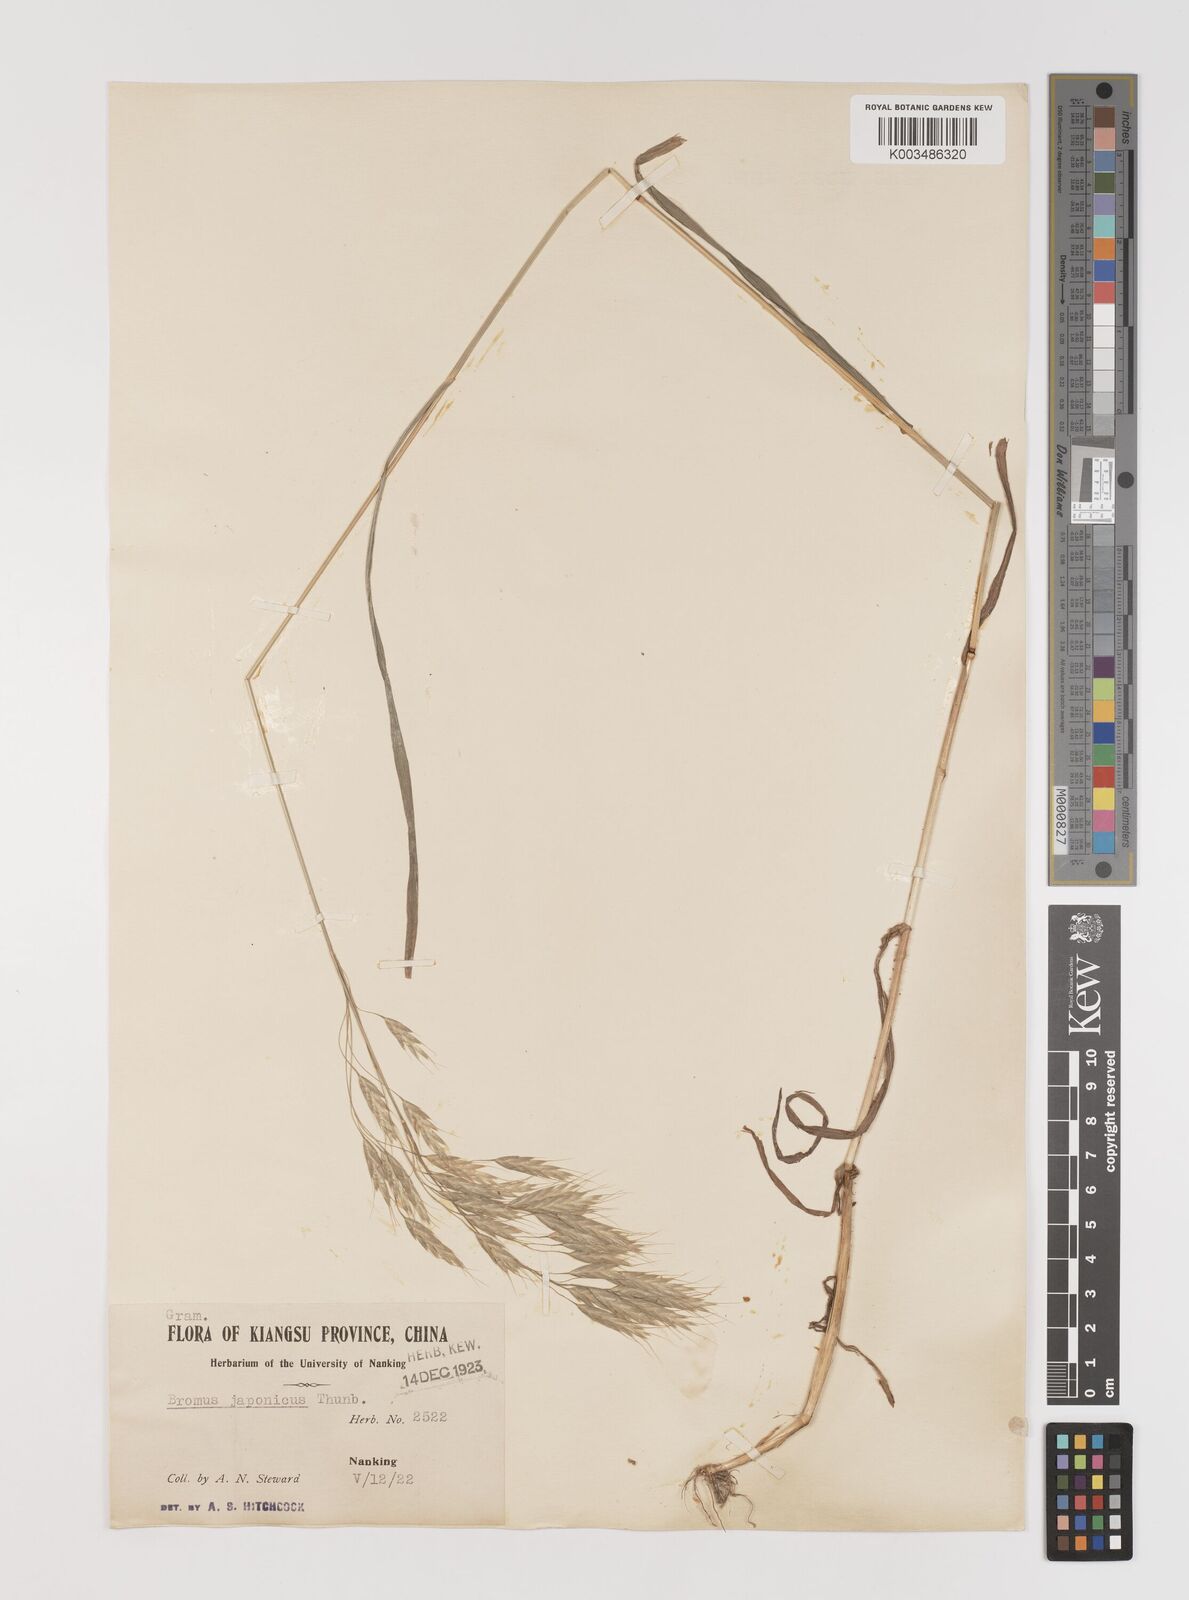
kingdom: Plantae
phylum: Tracheophyta
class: Liliopsida
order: Poales
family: Poaceae
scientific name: Poaceae
